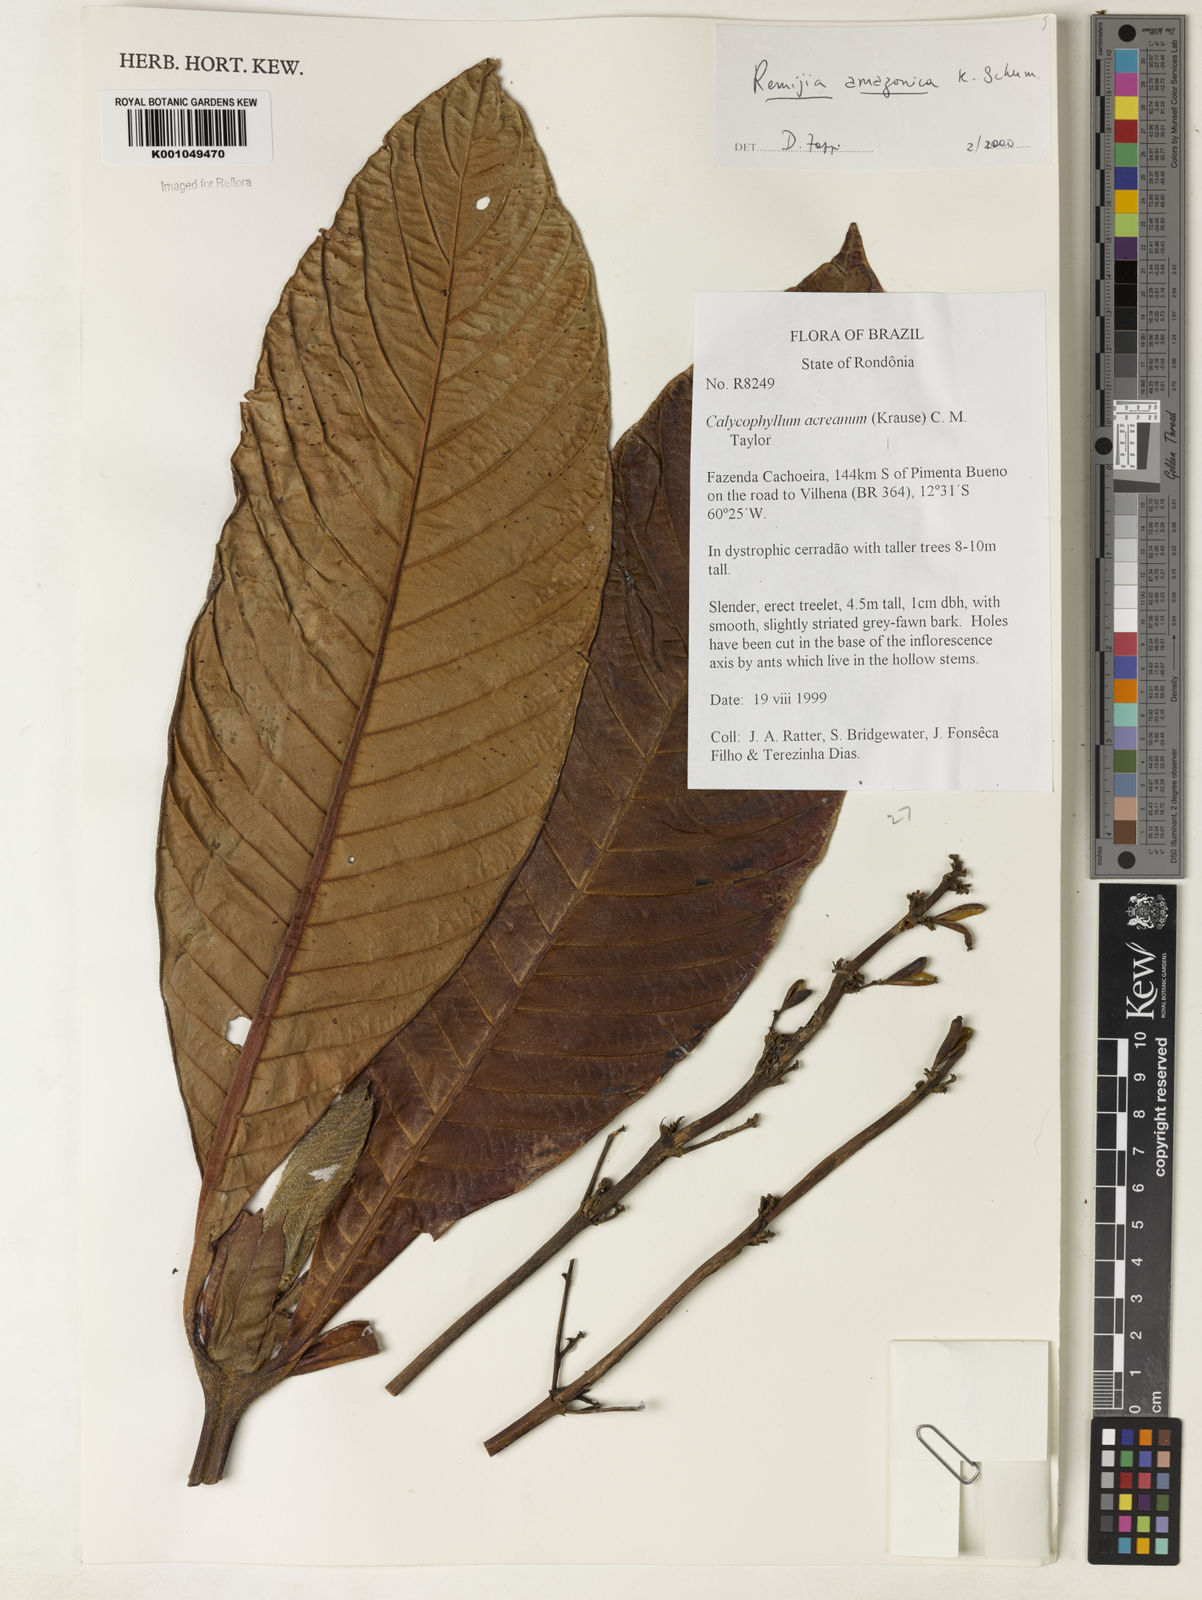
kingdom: Plantae
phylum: Tracheophyta
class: Magnoliopsida
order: Gentianales
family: Rubiaceae
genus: Remijia
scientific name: Remijia amazonica
